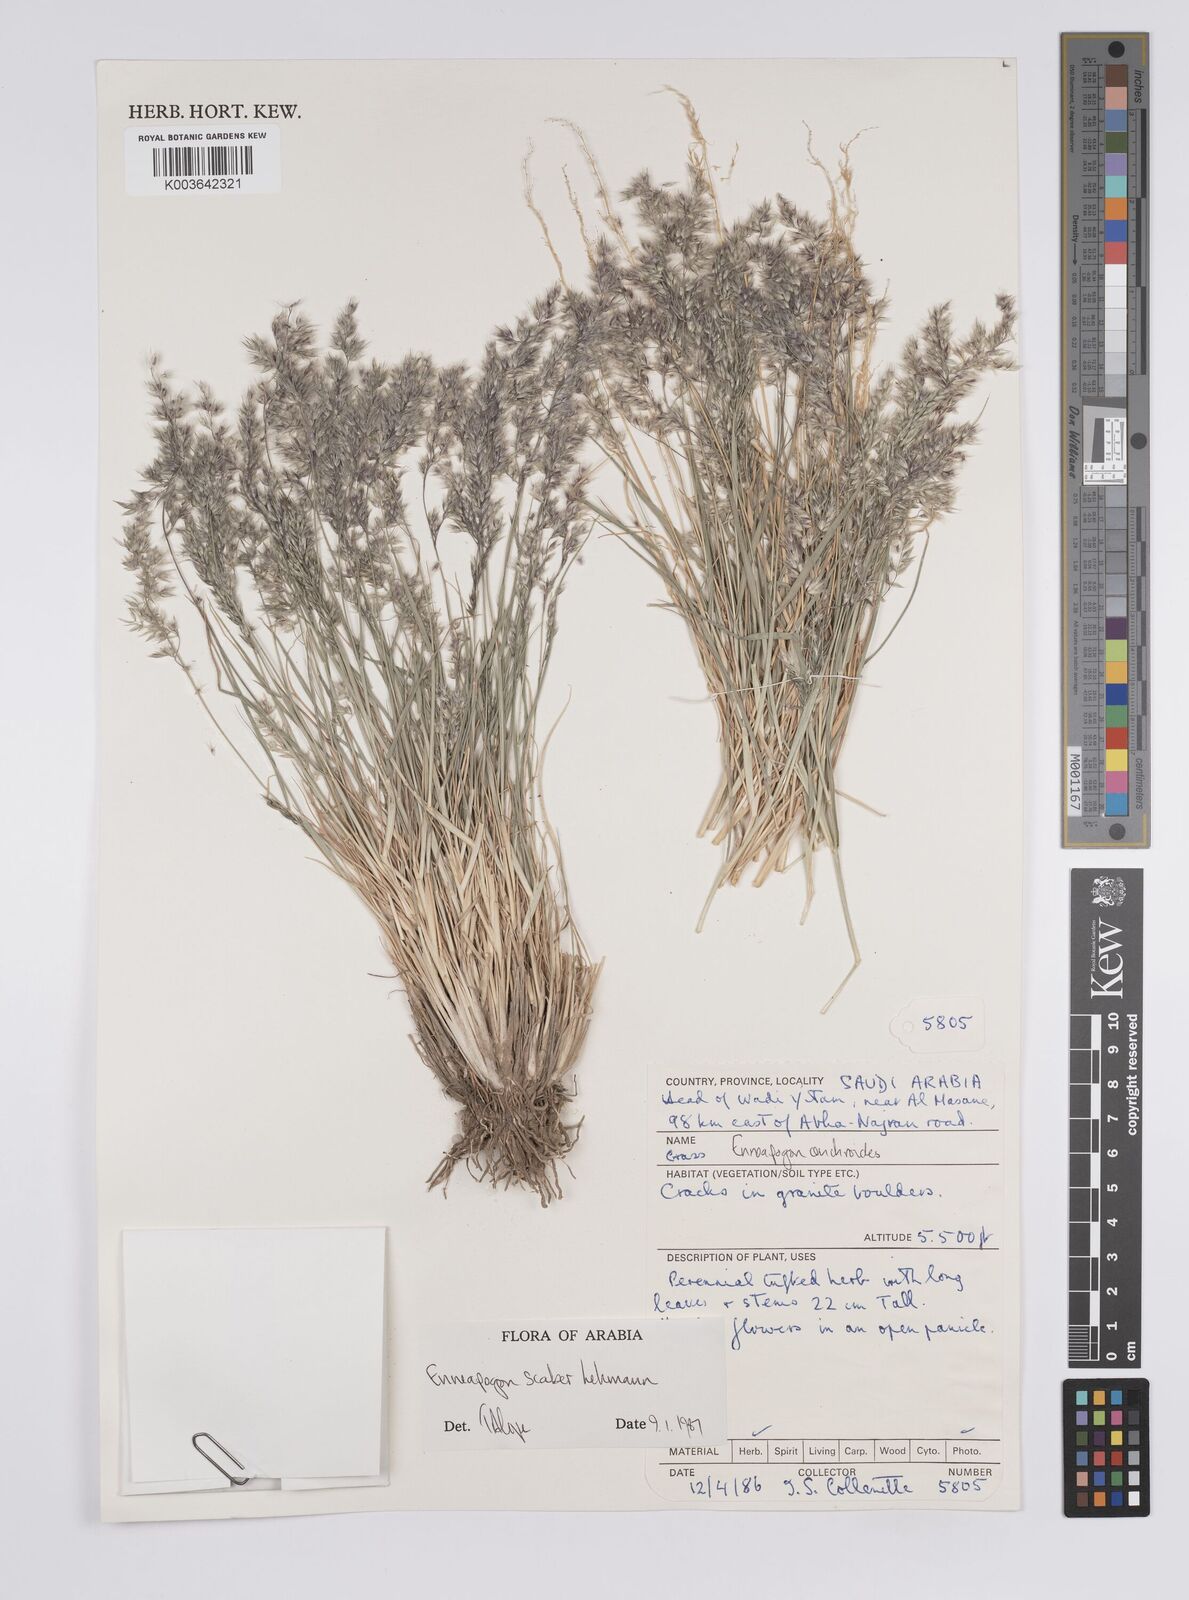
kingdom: Plantae
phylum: Tracheophyta
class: Liliopsida
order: Poales
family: Poaceae
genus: Enneapogon
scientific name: Enneapogon scaber
